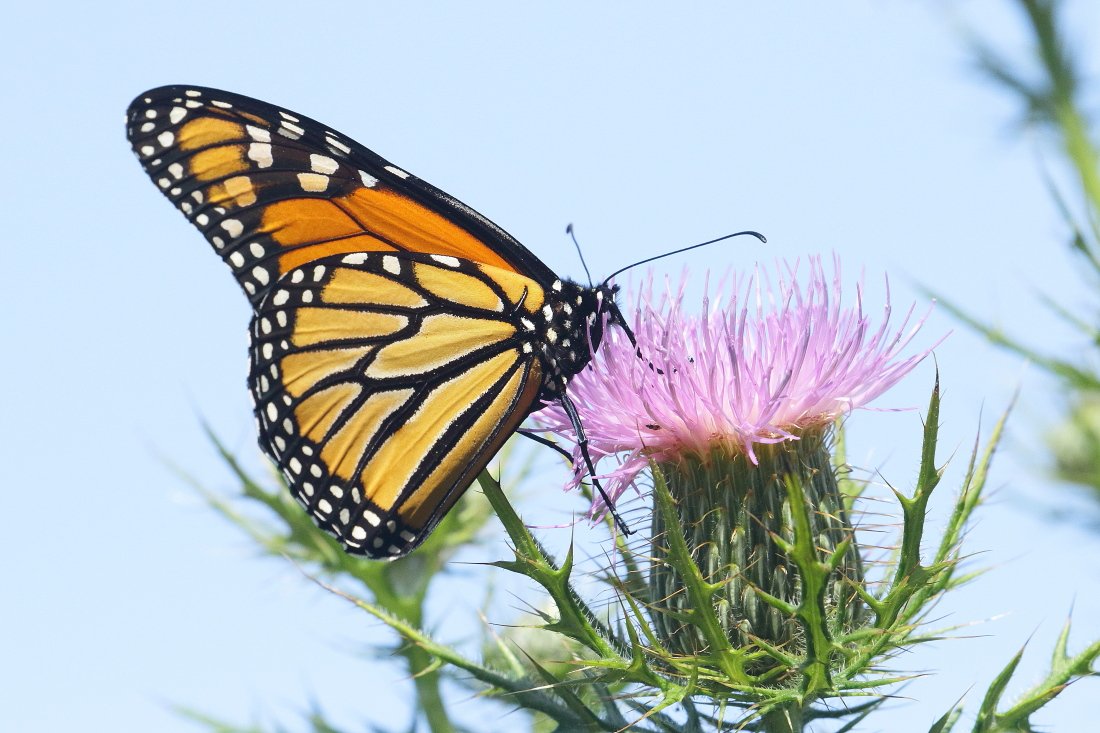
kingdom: Animalia
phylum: Arthropoda
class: Insecta
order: Lepidoptera
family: Nymphalidae
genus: Danaus
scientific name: Danaus plexippus
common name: Monarch
